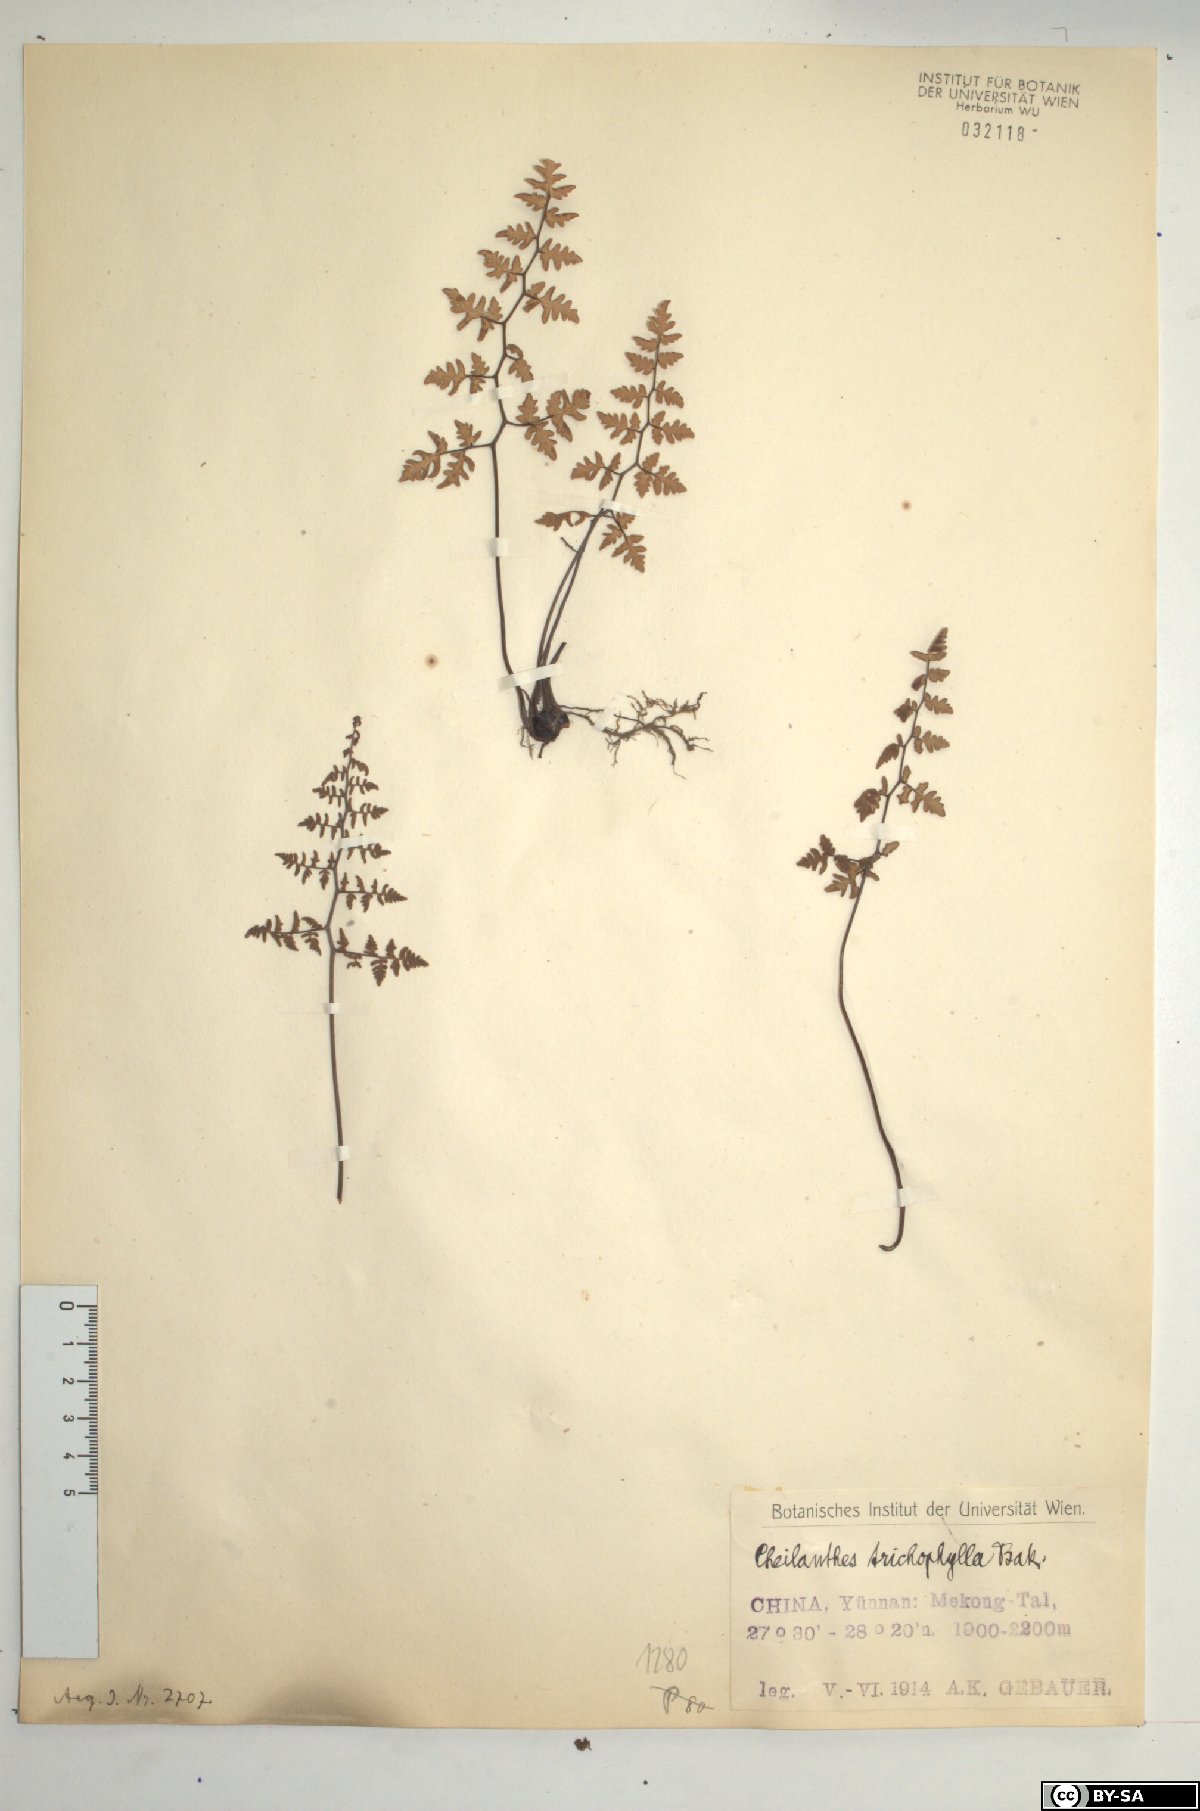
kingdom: Plantae
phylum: Tracheophyta
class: Polypodiopsida
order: Polypodiales
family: Pteridaceae
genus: Oeosporangium
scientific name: Oeosporangium trichophyllum
